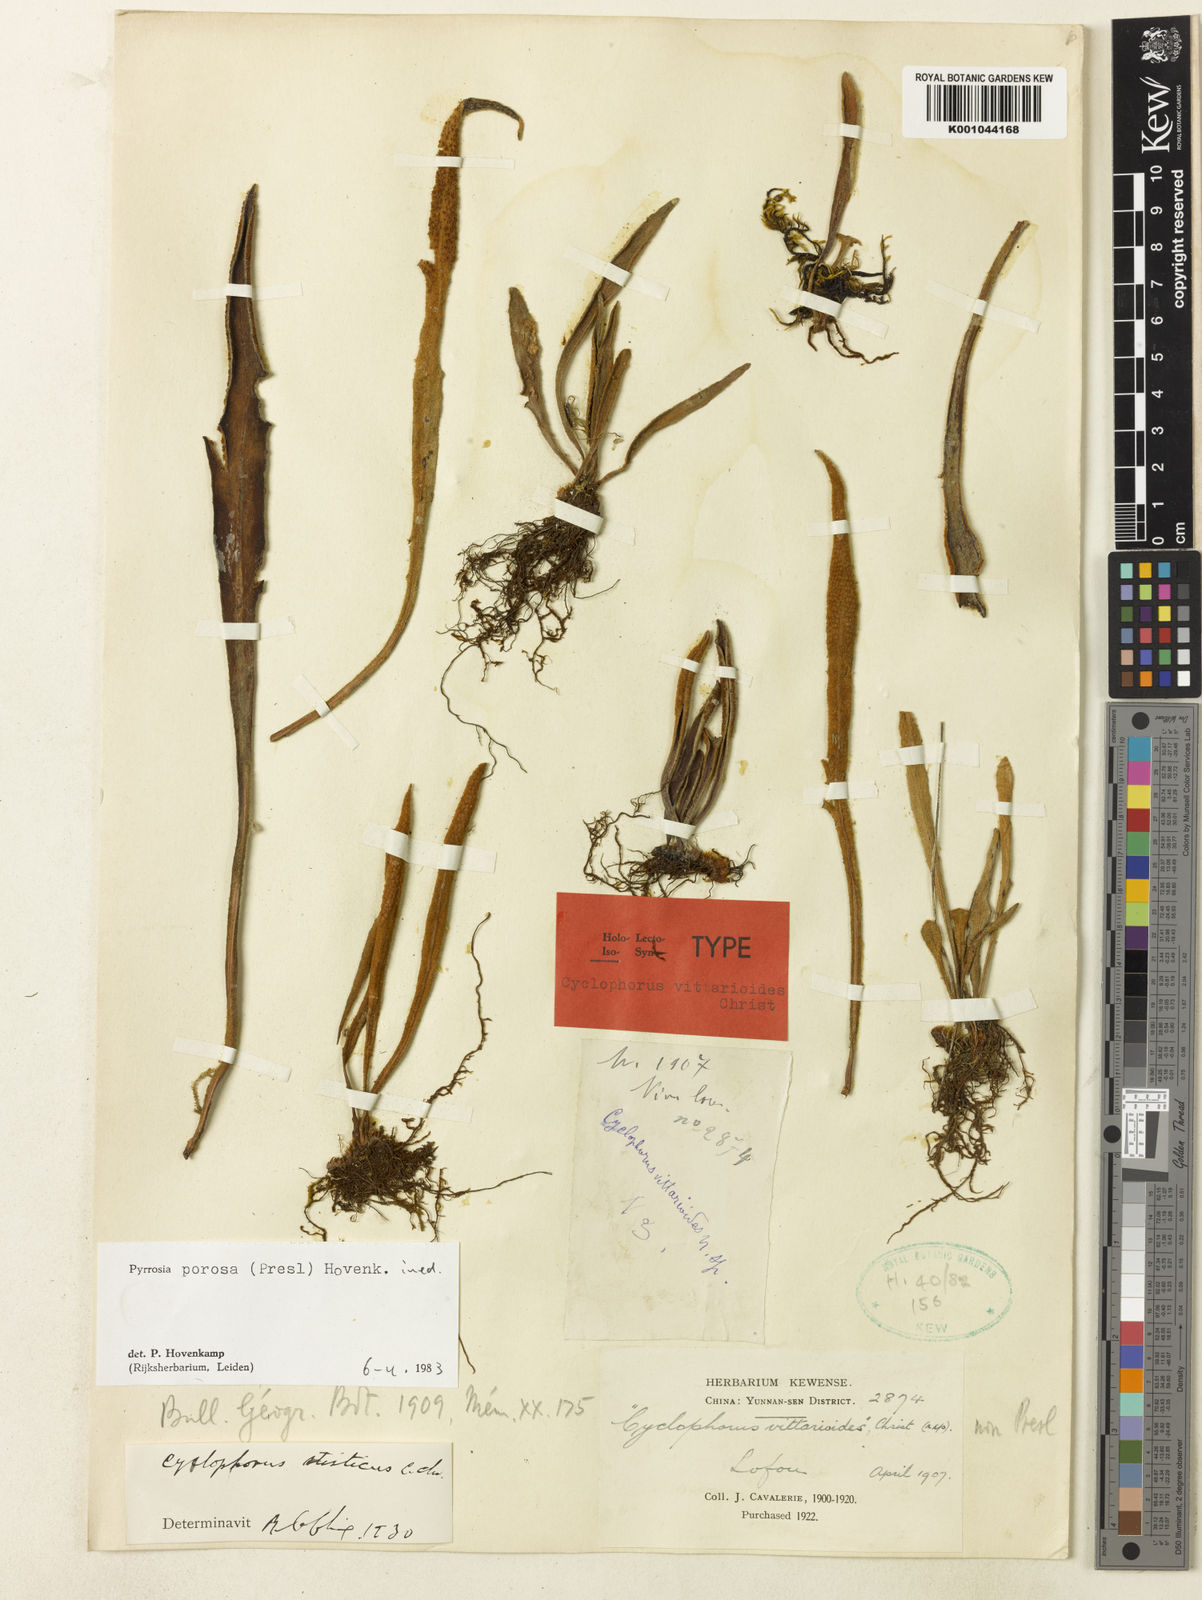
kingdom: Plantae
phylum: Tracheophyta
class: Polypodiopsida
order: Polypodiales
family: Polypodiaceae
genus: Pyrrosia
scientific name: Pyrrosia porosa
